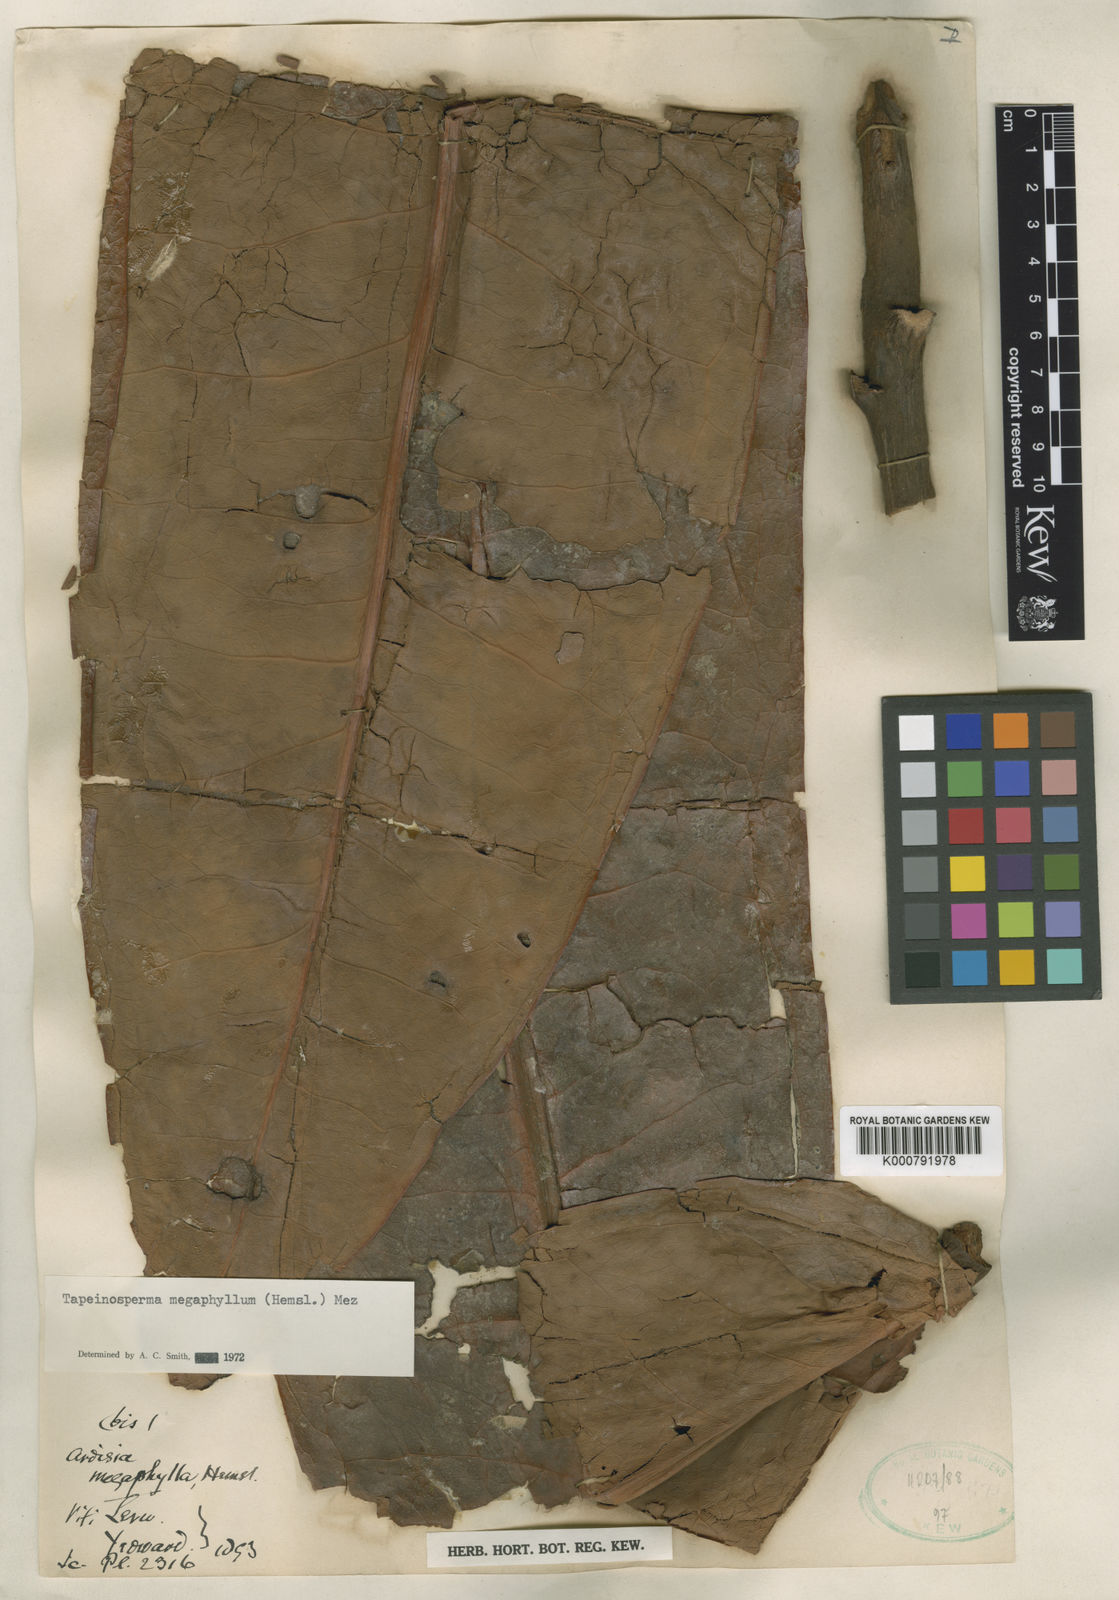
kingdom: Plantae
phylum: Tracheophyta
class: Magnoliopsida
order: Ericales
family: Primulaceae
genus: Tapeinosperma
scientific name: Tapeinosperma megaphyllum
